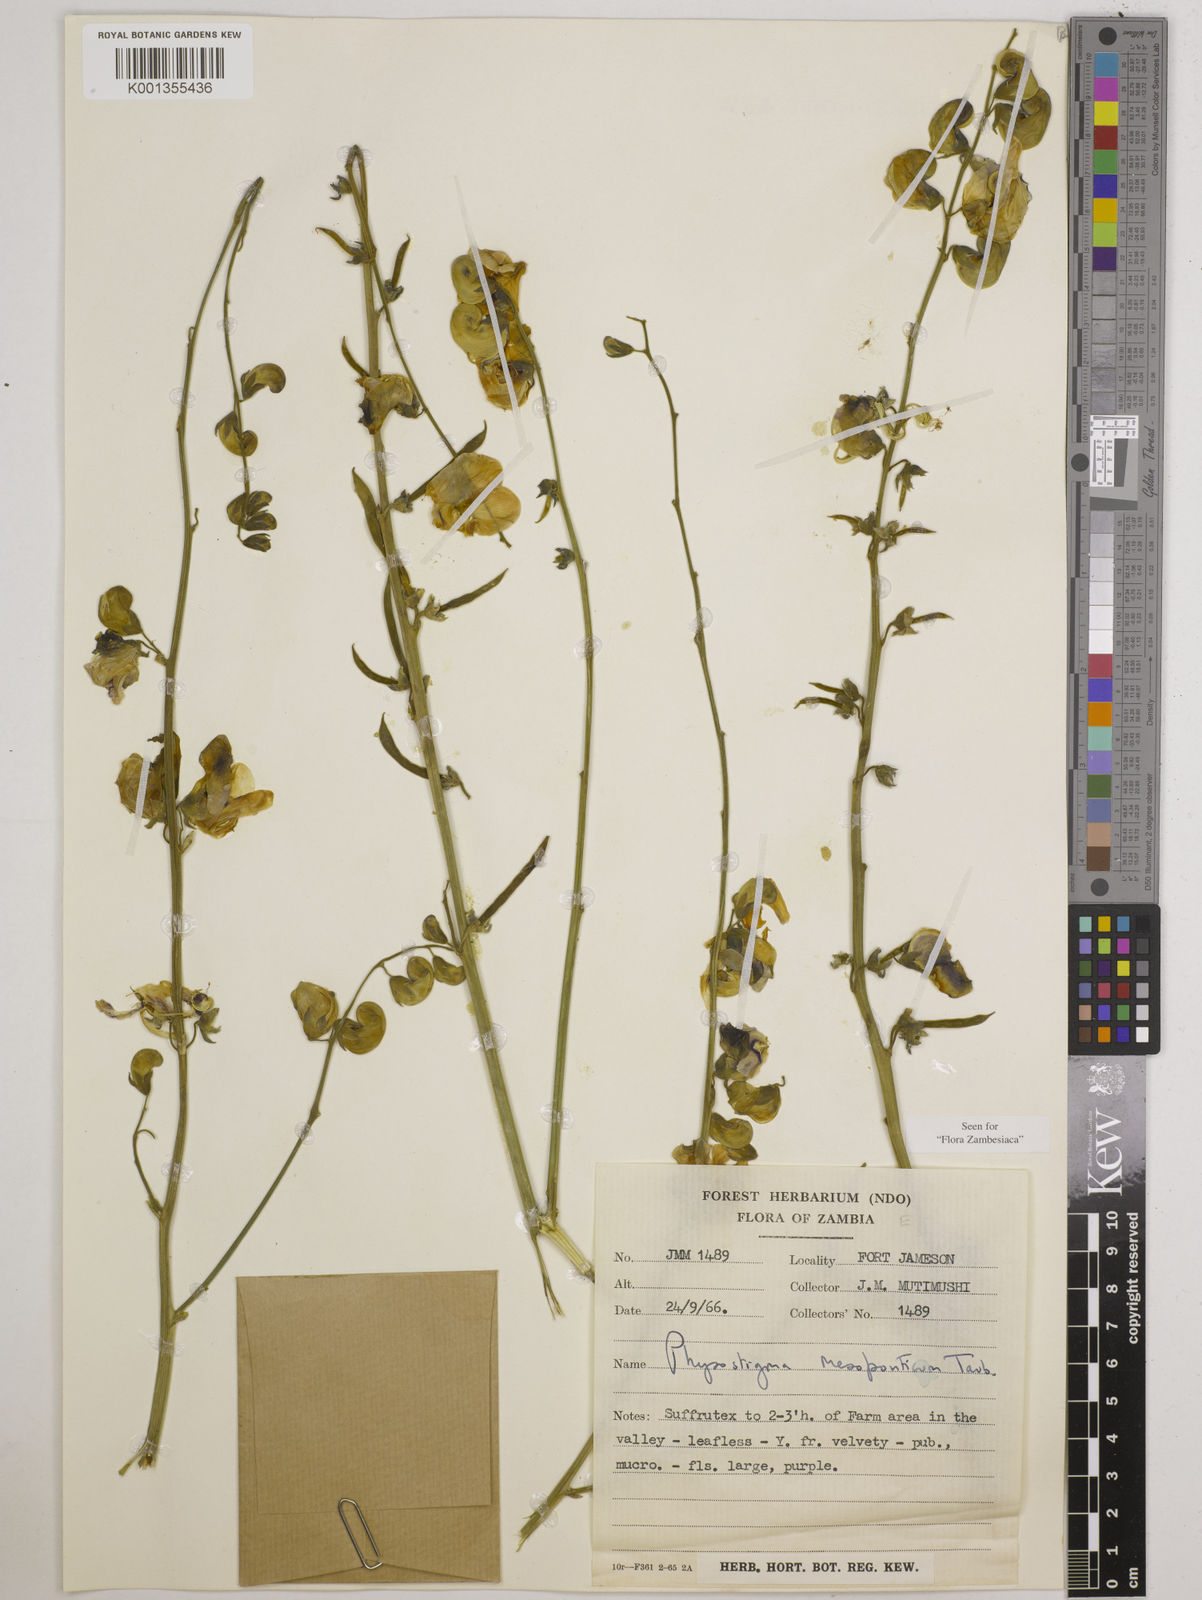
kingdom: Plantae
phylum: Tracheophyta
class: Magnoliopsida
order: Fabales
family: Fabaceae
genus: Physostigma
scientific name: Physostigma mesoponticum
